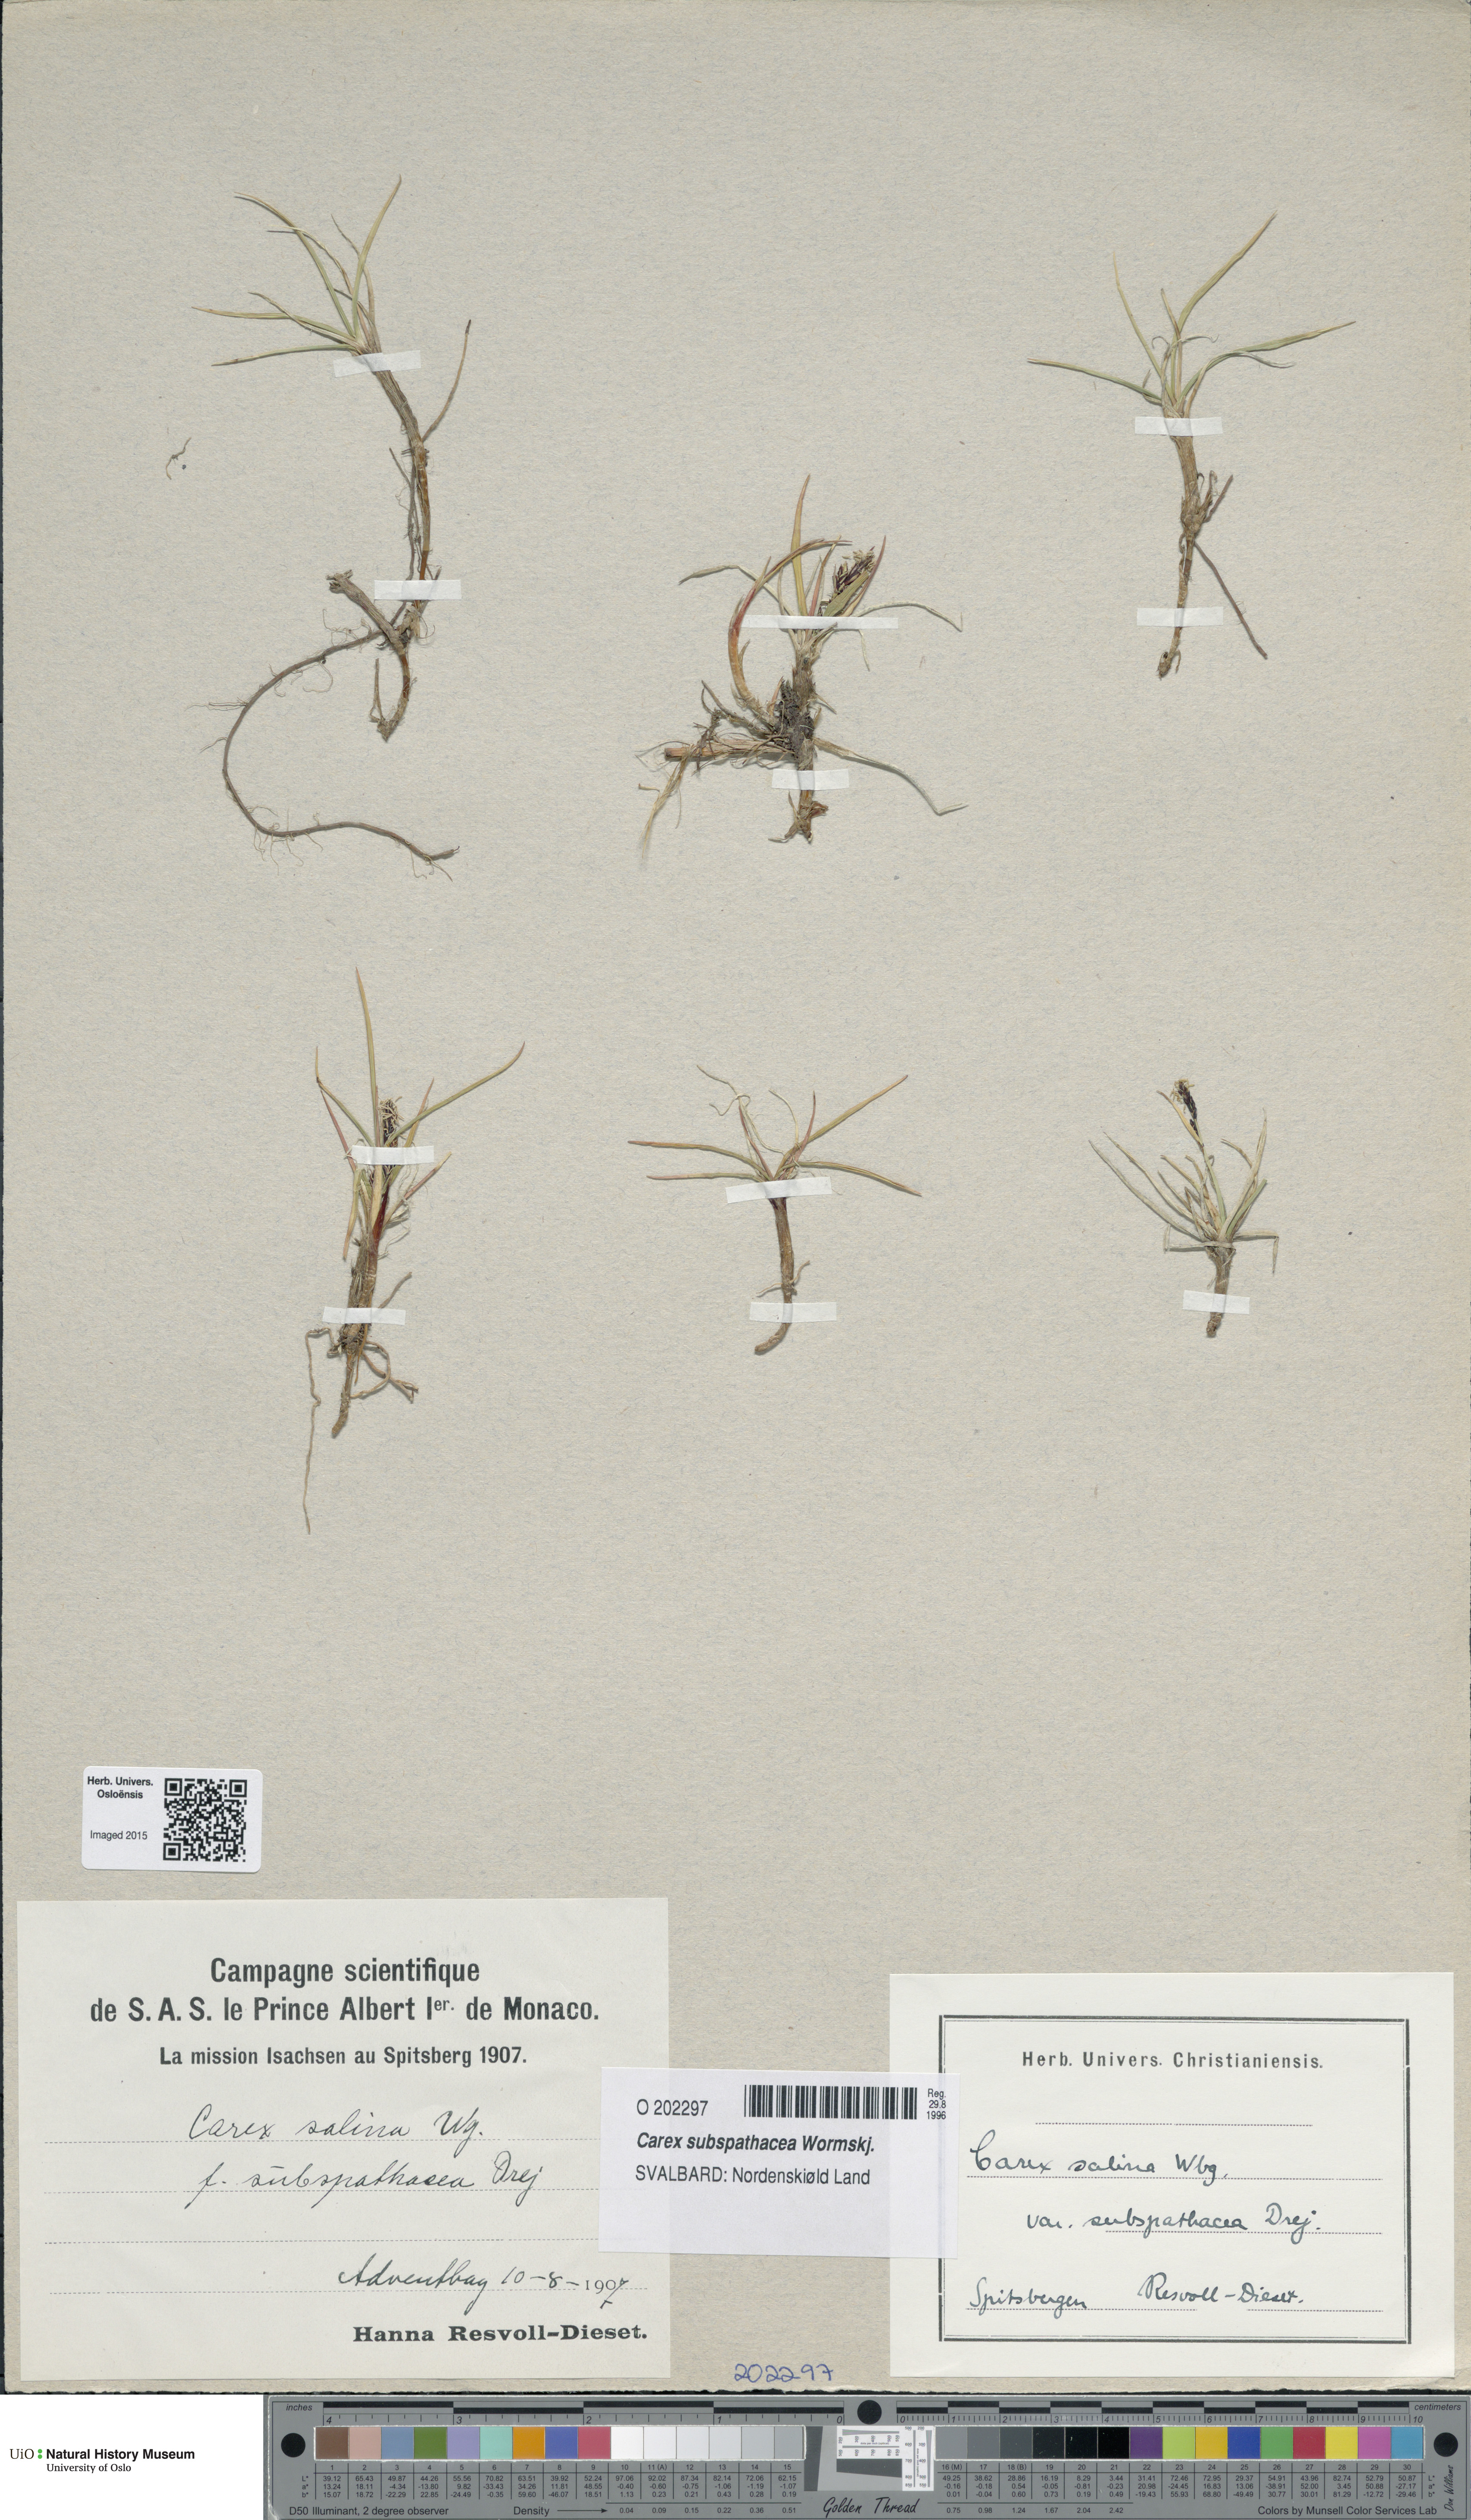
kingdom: Plantae
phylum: Tracheophyta
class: Liliopsida
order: Poales
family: Cyperaceae
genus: Carex
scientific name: Carex subspathacea
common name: Hoppner's sedge
